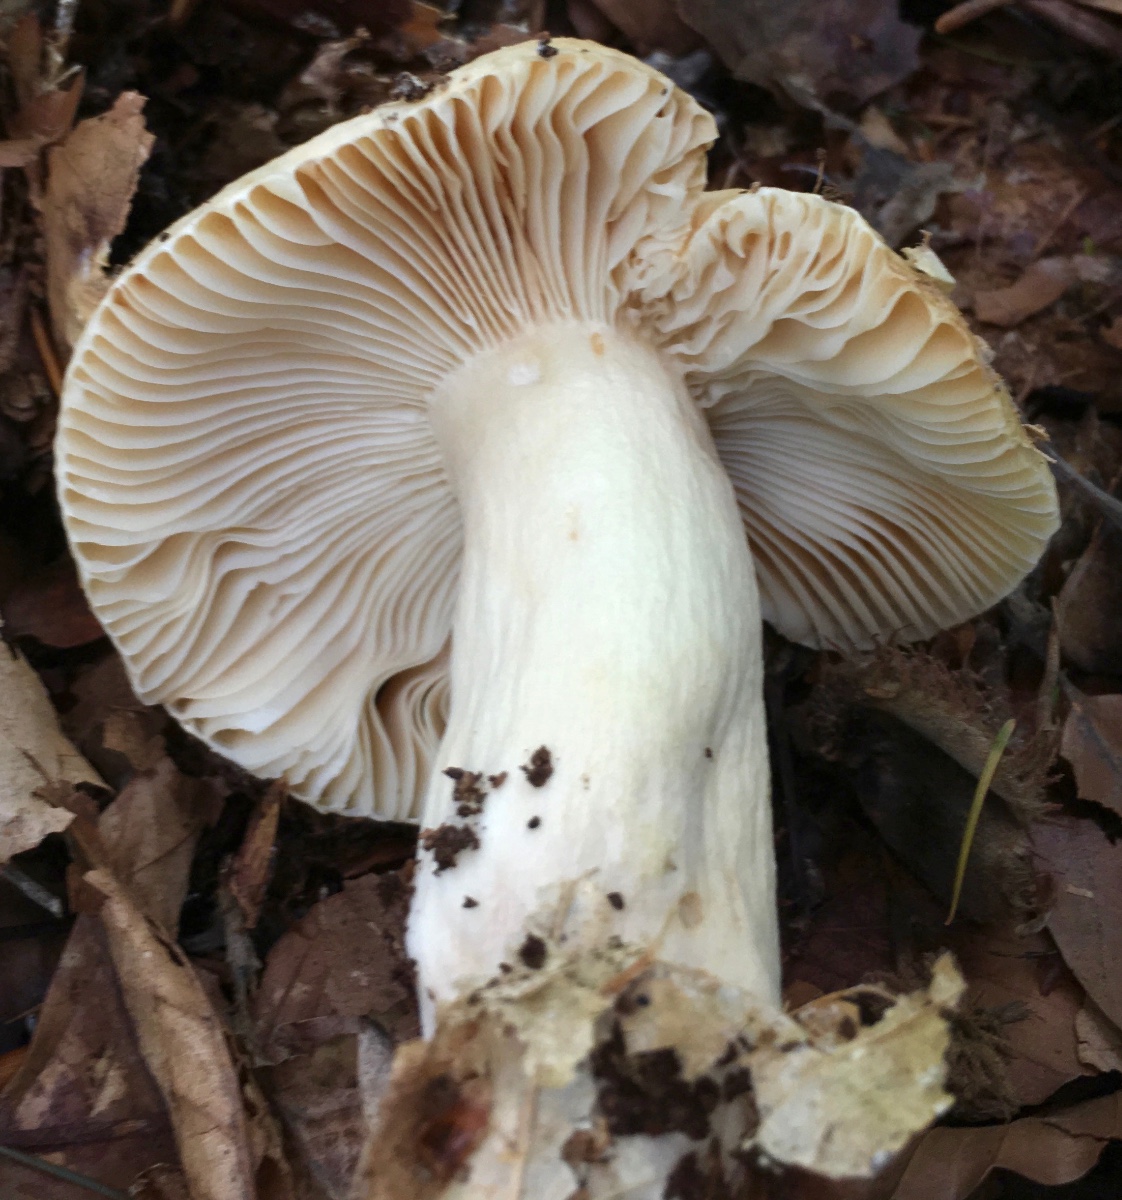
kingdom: Fungi
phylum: Basidiomycota
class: Agaricomycetes
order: Russulales
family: Russulaceae
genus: Russula
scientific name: Russula fellea
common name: galde-skørhat
